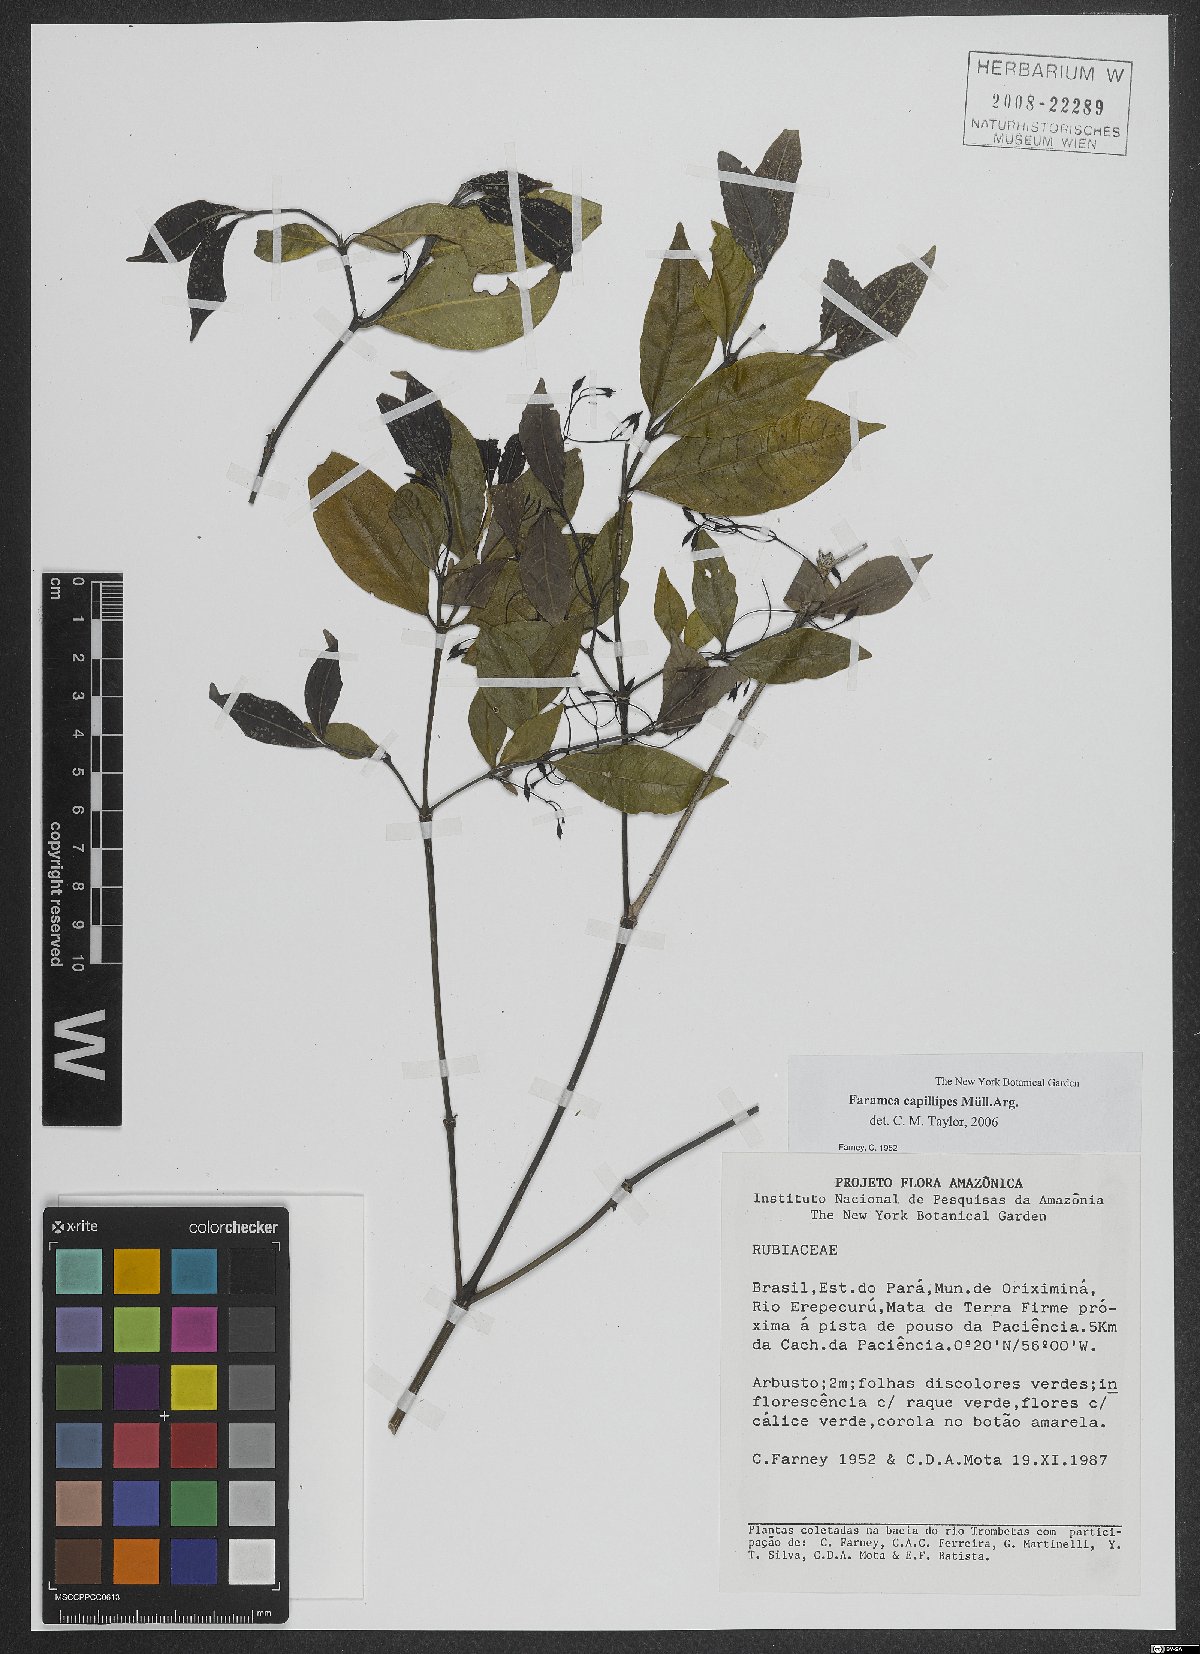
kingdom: Plantae
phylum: Tracheophyta
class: Magnoliopsida
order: Gentianales
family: Rubiaceae
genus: Faramea
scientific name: Faramea capillipes
